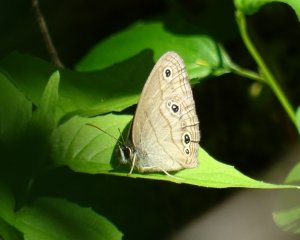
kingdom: Animalia
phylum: Arthropoda
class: Insecta
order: Lepidoptera
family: Nymphalidae
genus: Euptychia
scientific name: Euptychia cymela
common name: Little Wood Satyr
